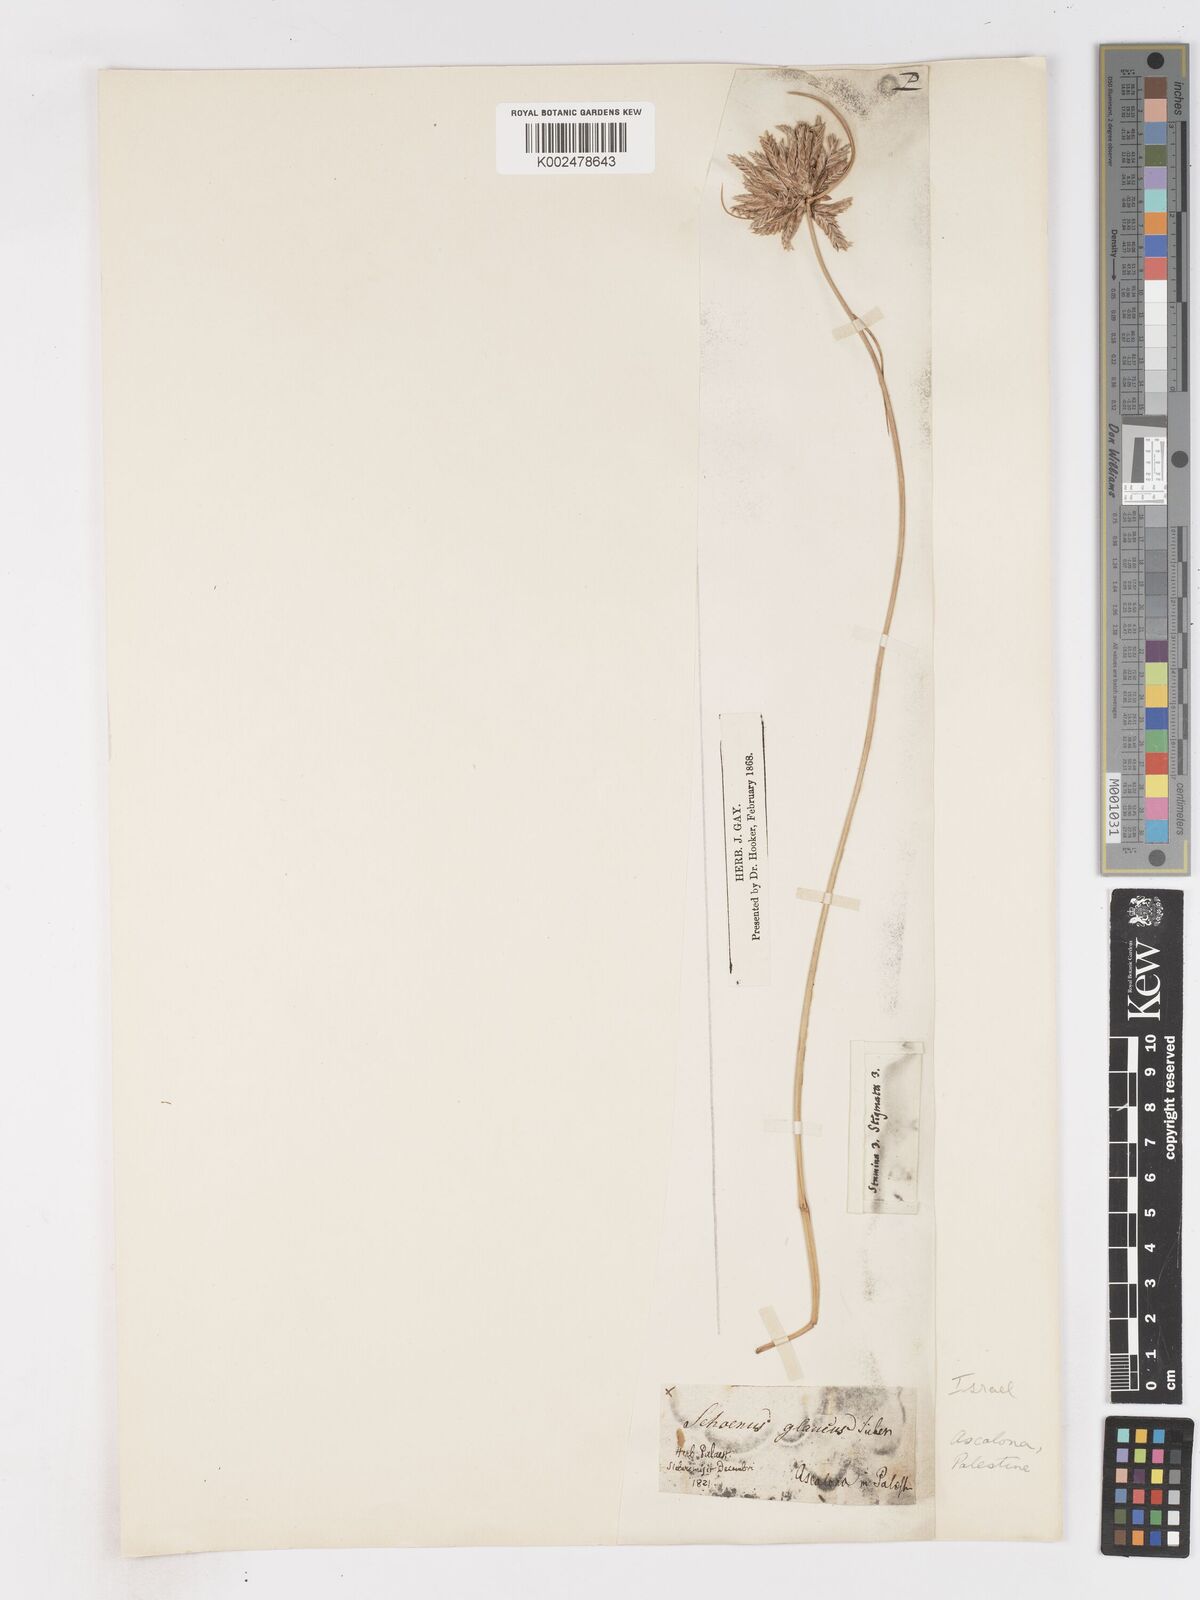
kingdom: Plantae
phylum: Tracheophyta
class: Liliopsida
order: Poales
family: Cyperaceae
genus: Cyperus
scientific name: Cyperus conglomeratus
